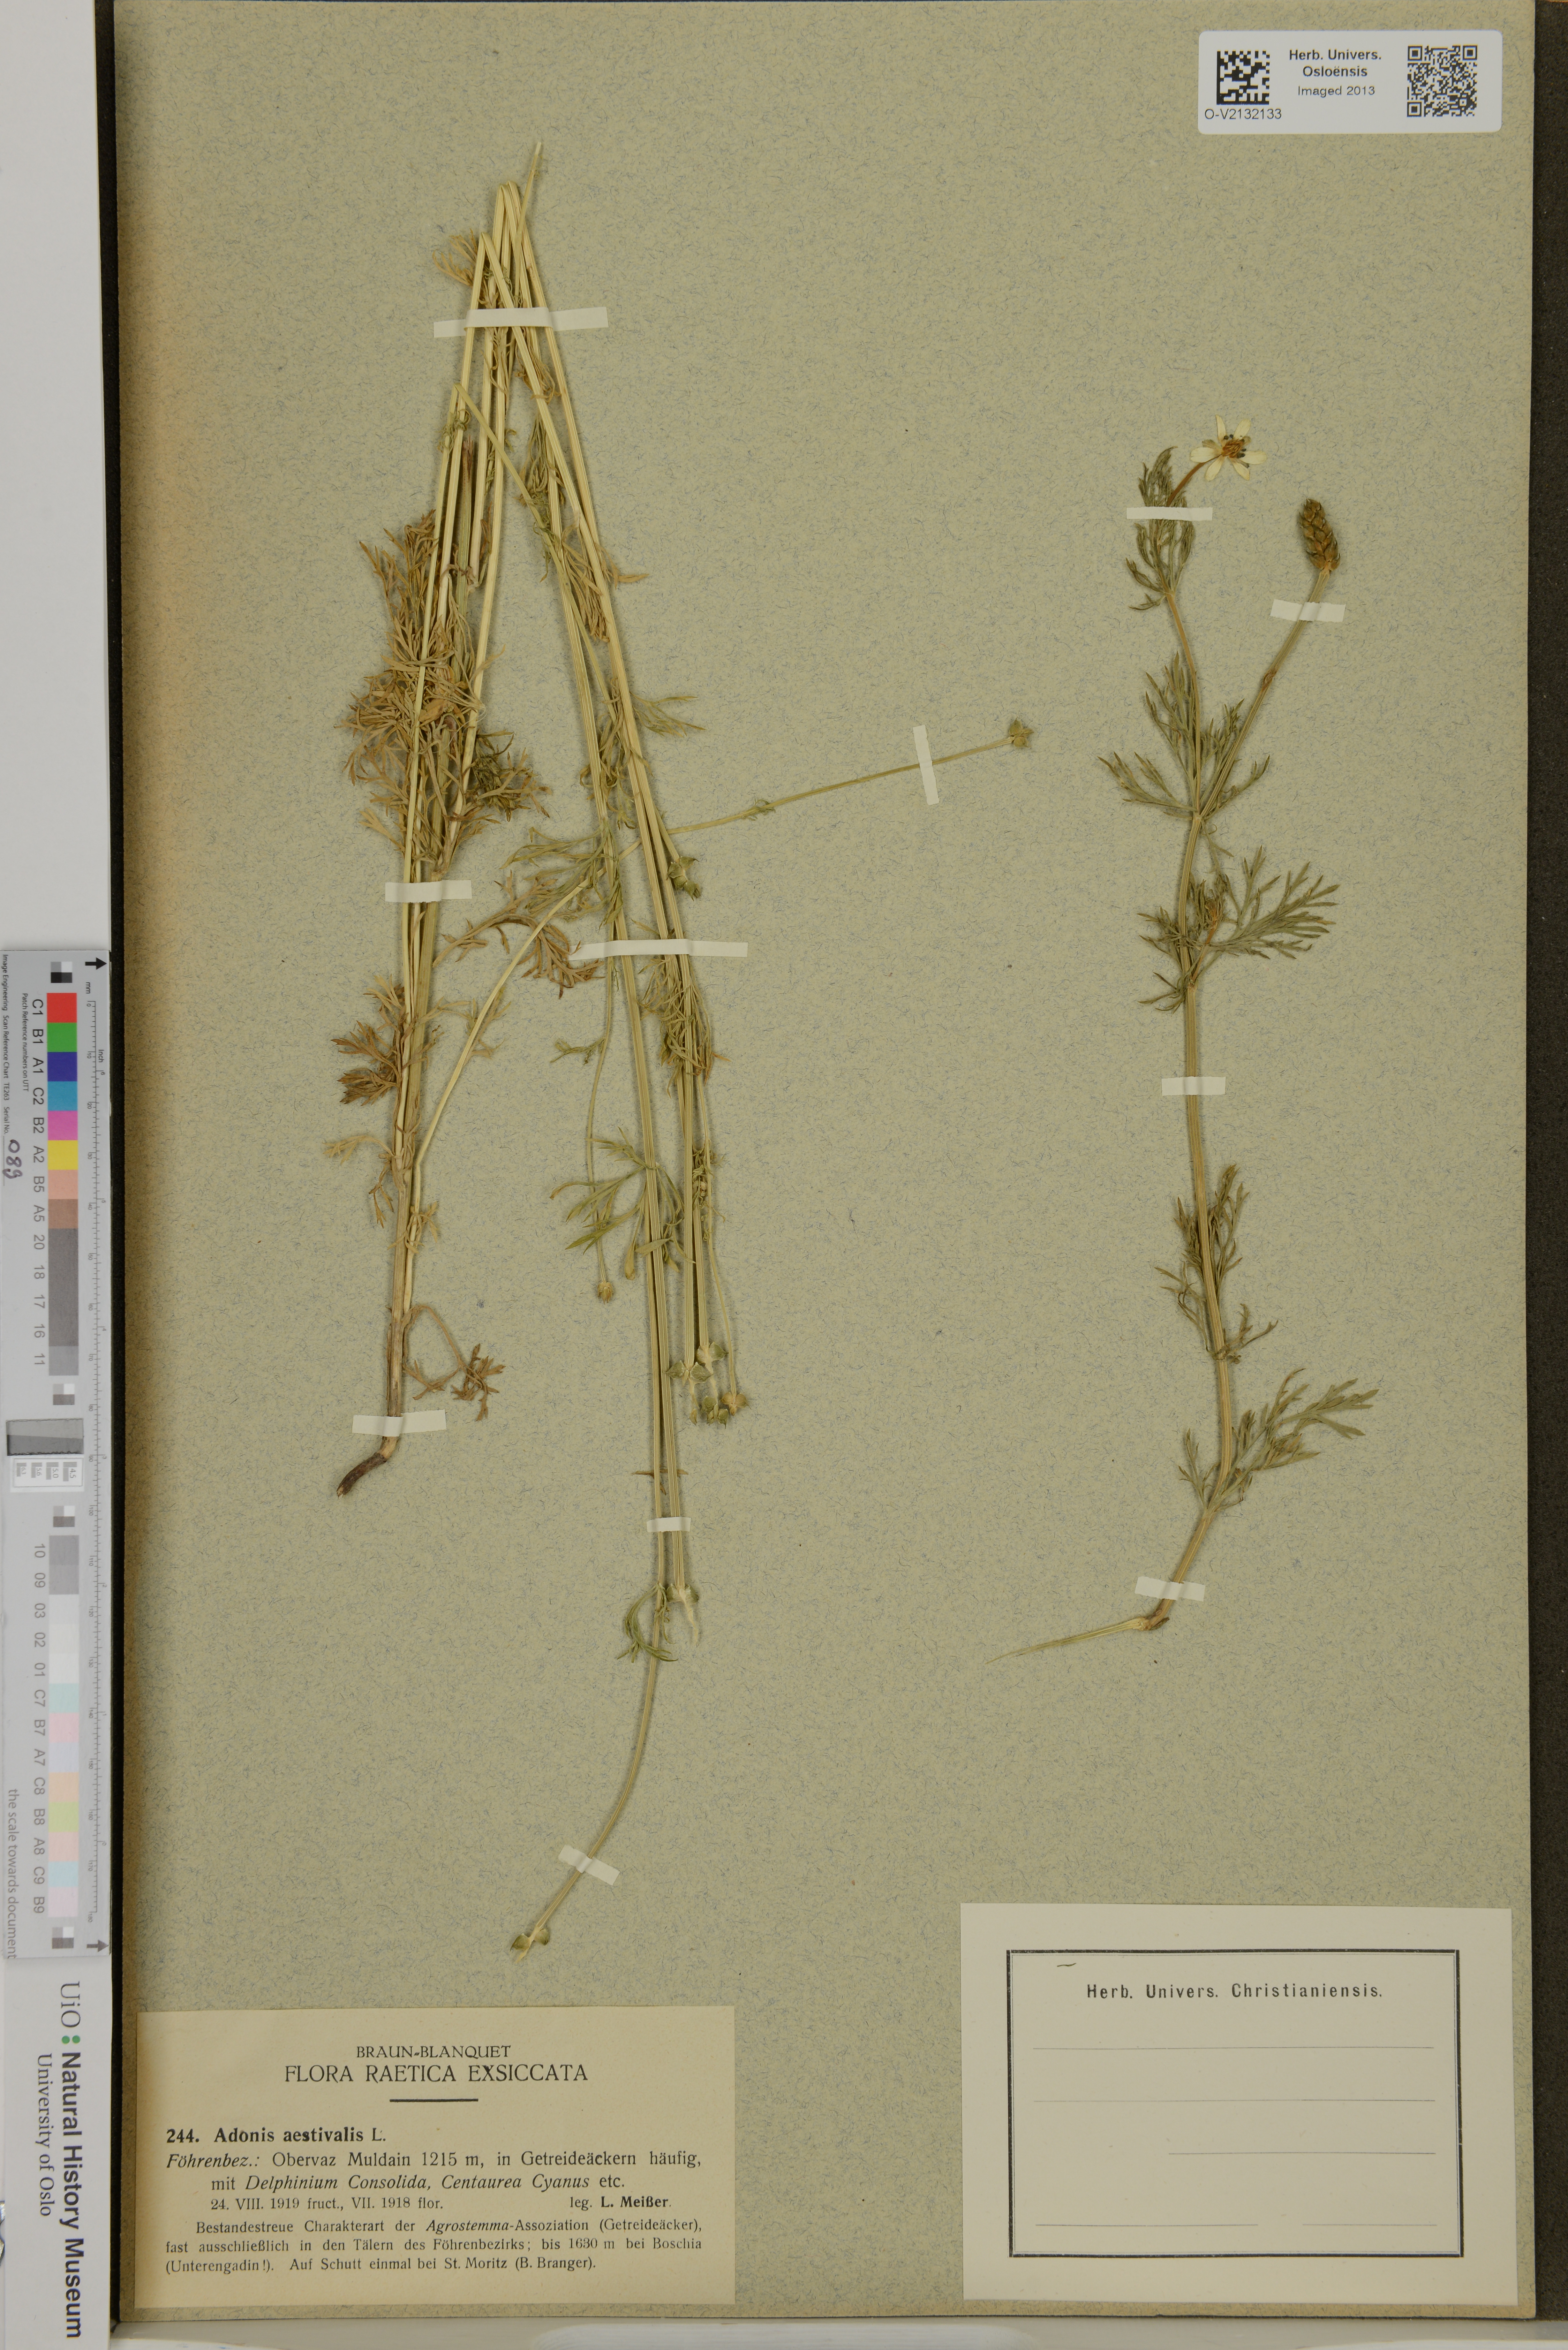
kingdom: Plantae
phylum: Tracheophyta
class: Magnoliopsida
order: Ranunculales
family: Ranunculaceae
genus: Adonis
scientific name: Adonis aestivalis
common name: Summer pheasant's-eye
